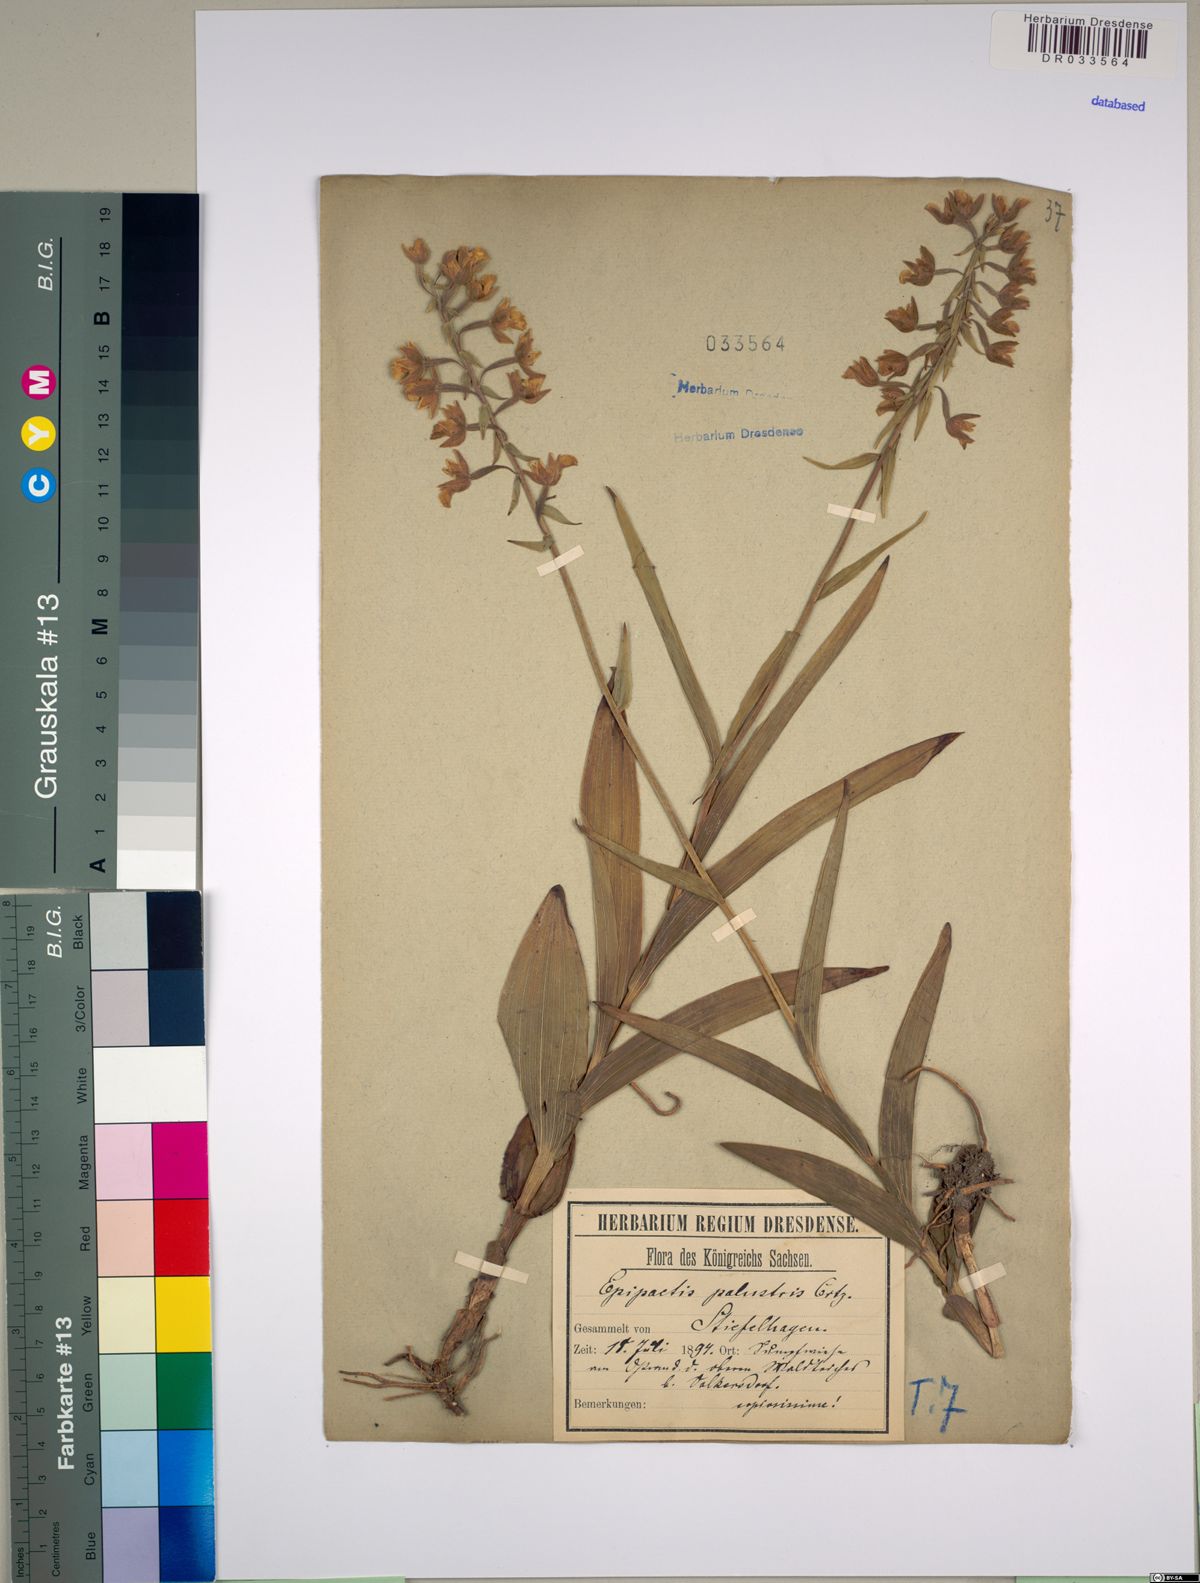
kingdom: Plantae
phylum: Tracheophyta
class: Liliopsida
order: Asparagales
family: Orchidaceae
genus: Epipactis
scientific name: Epipactis palustris
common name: Marsh helleborine
